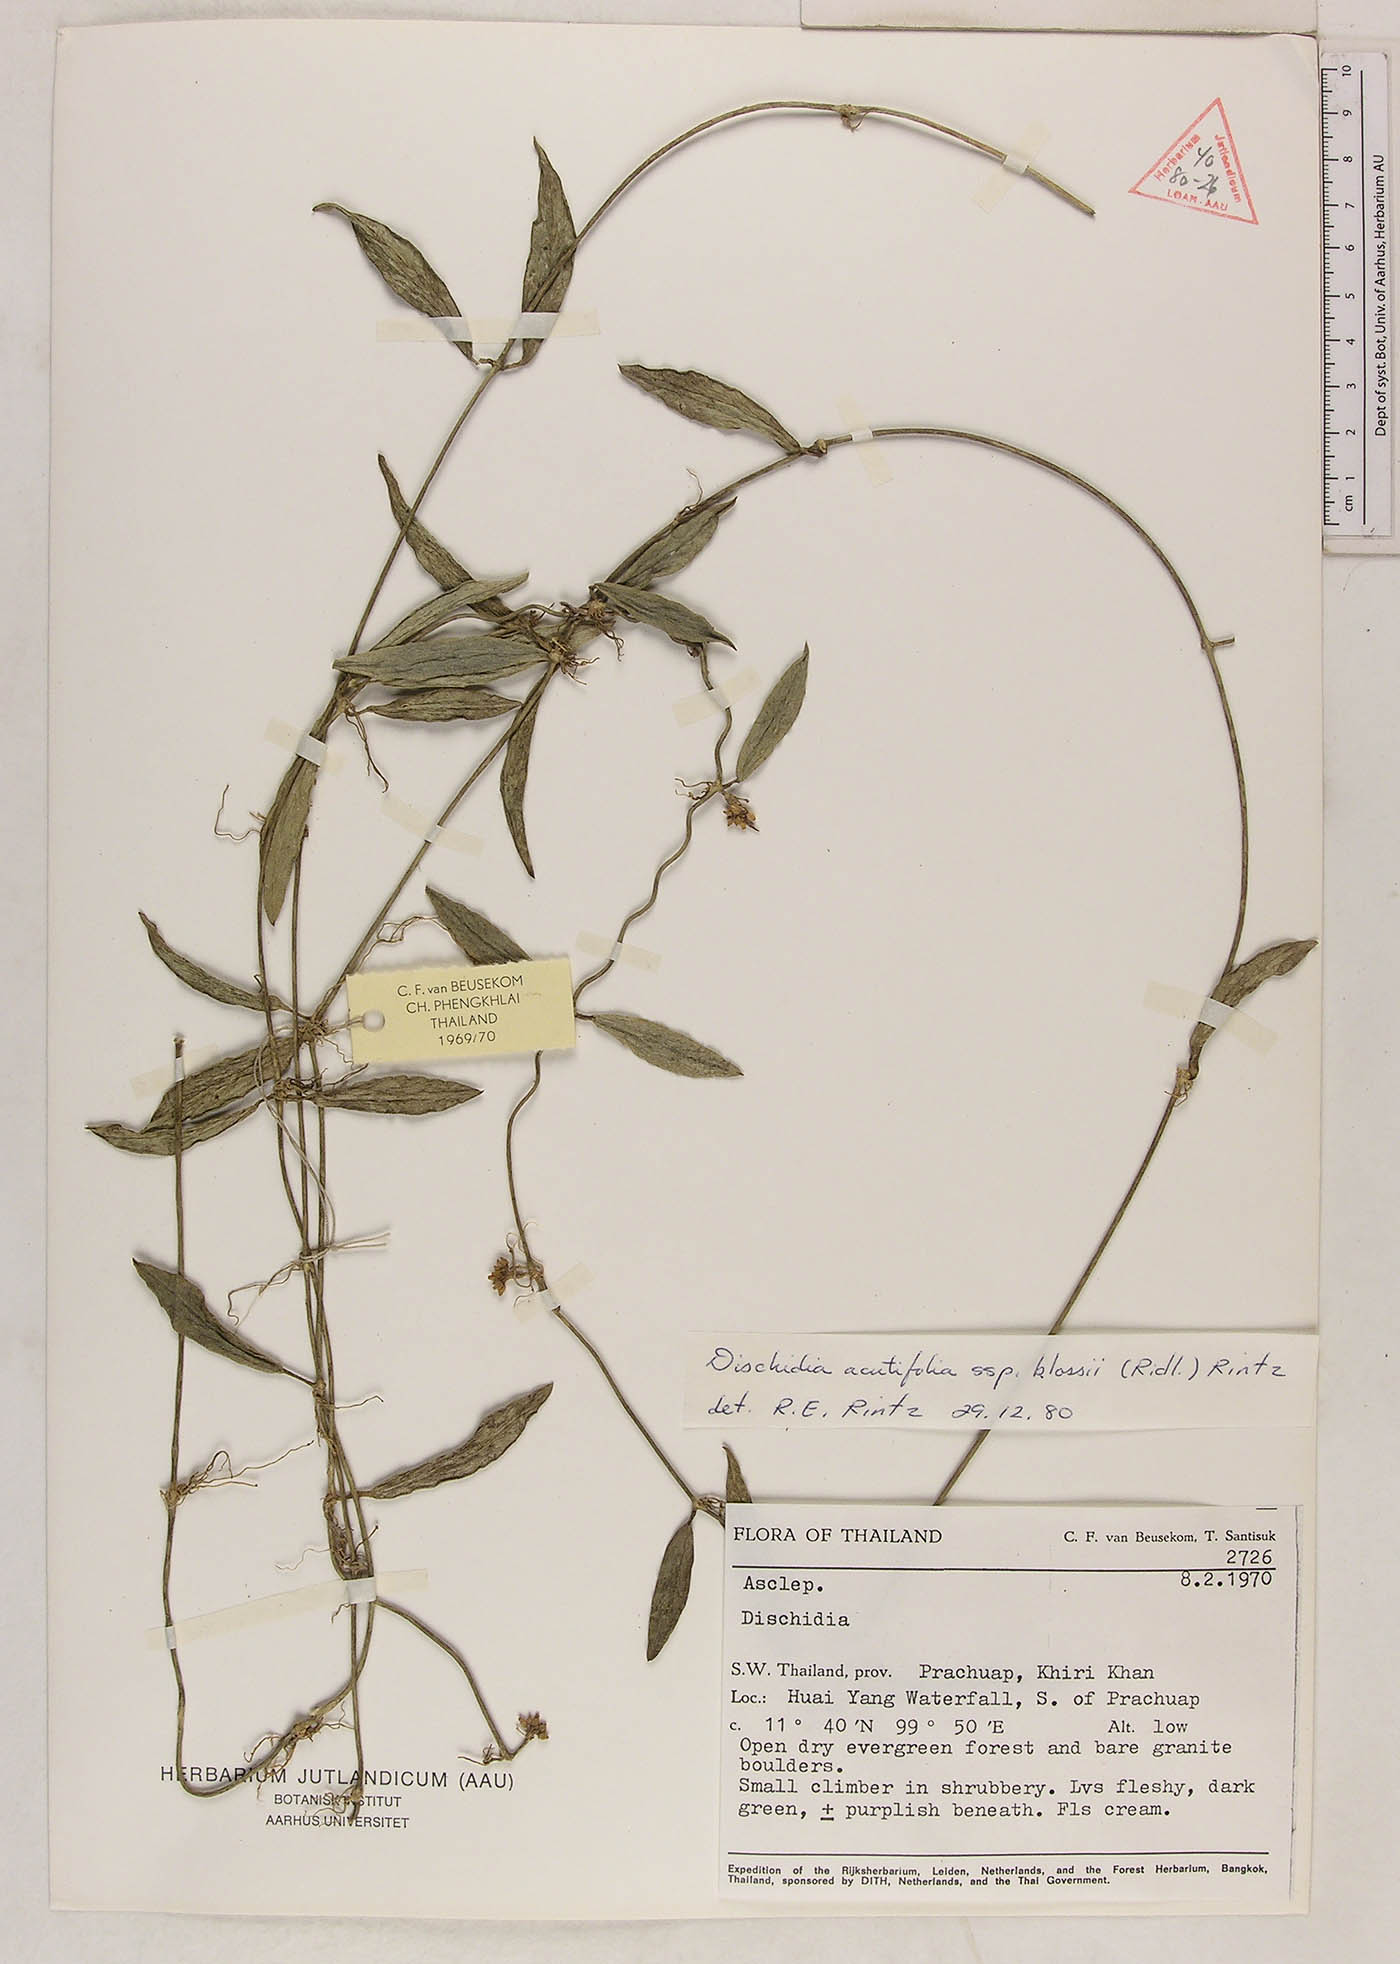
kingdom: Plantae
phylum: Tracheophyta
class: Magnoliopsida
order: Gentianales
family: Apocynaceae
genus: Dischidia
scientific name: Dischidia acutifolia
